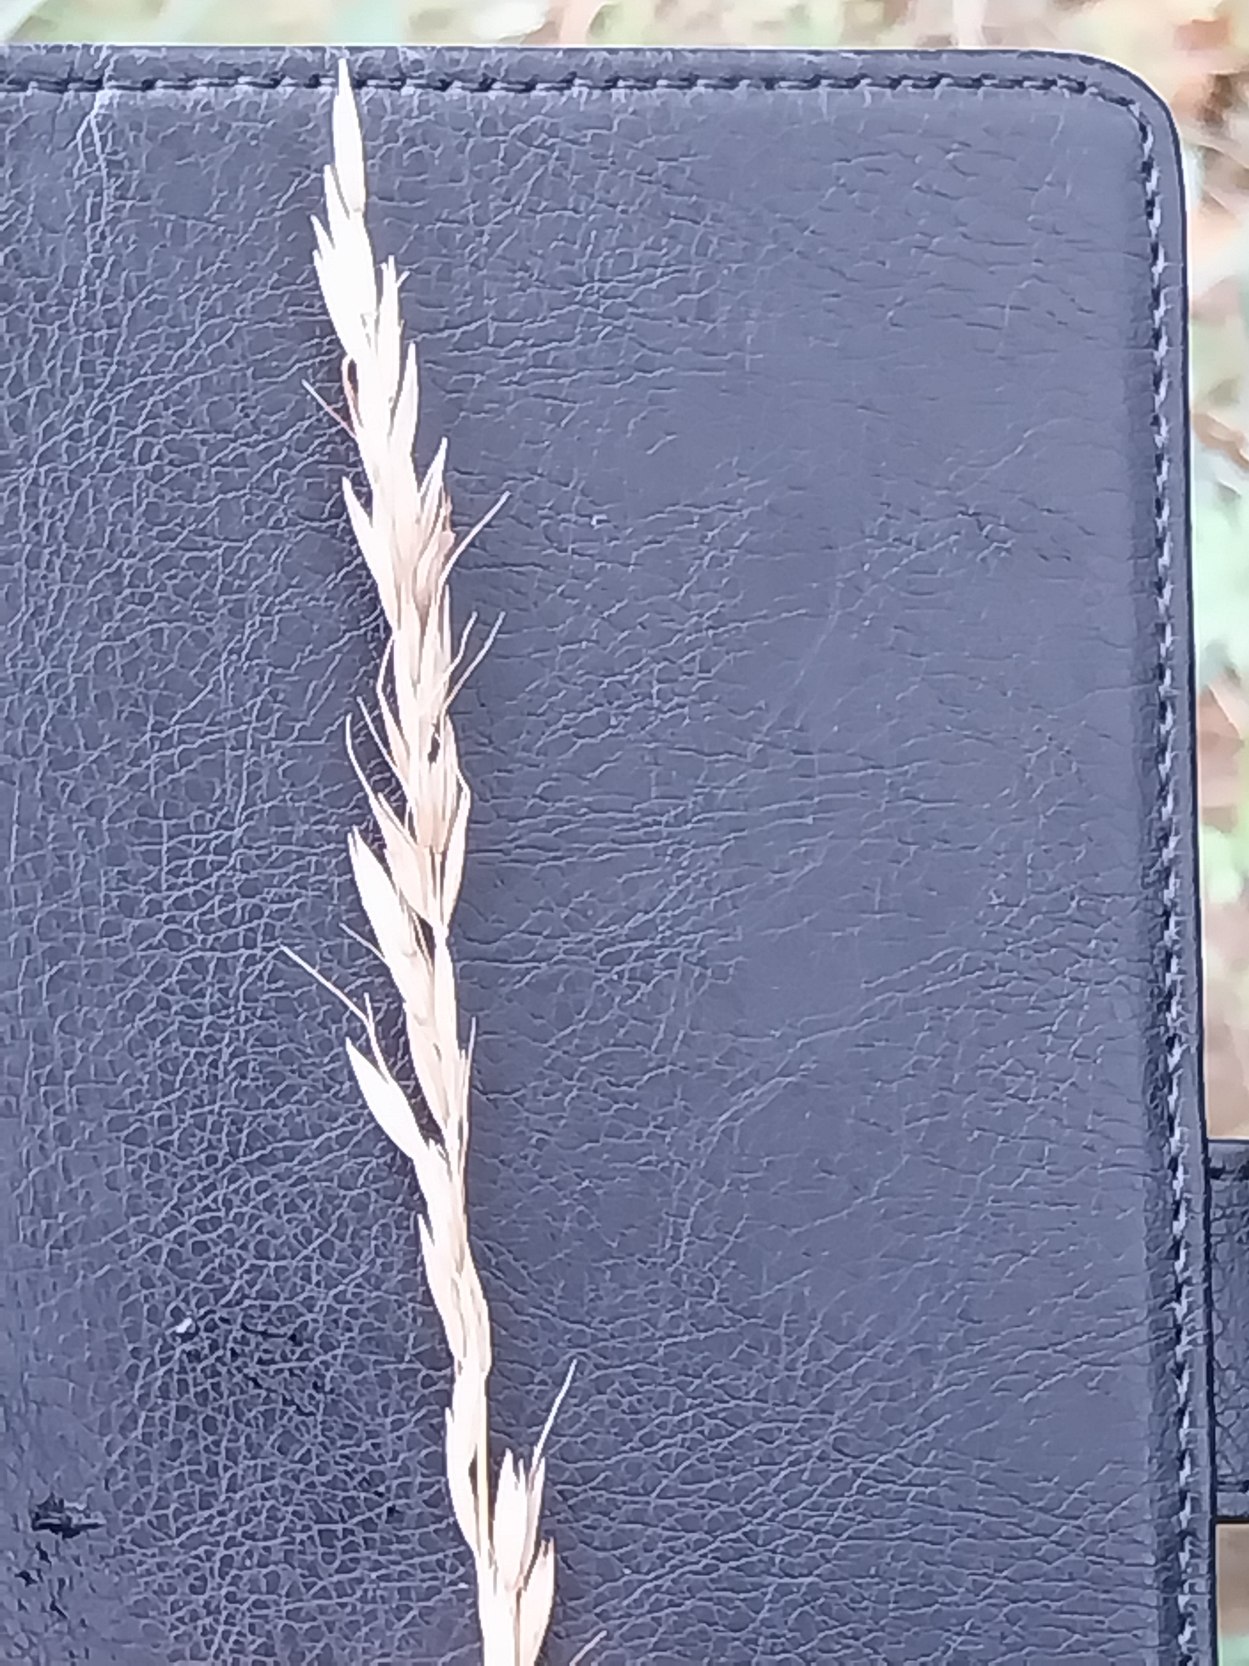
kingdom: Plantae
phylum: Tracheophyta
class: Liliopsida
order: Poales
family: Poaceae
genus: Arrhenatherum
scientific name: Arrhenatherum elatius
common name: Draphavre
